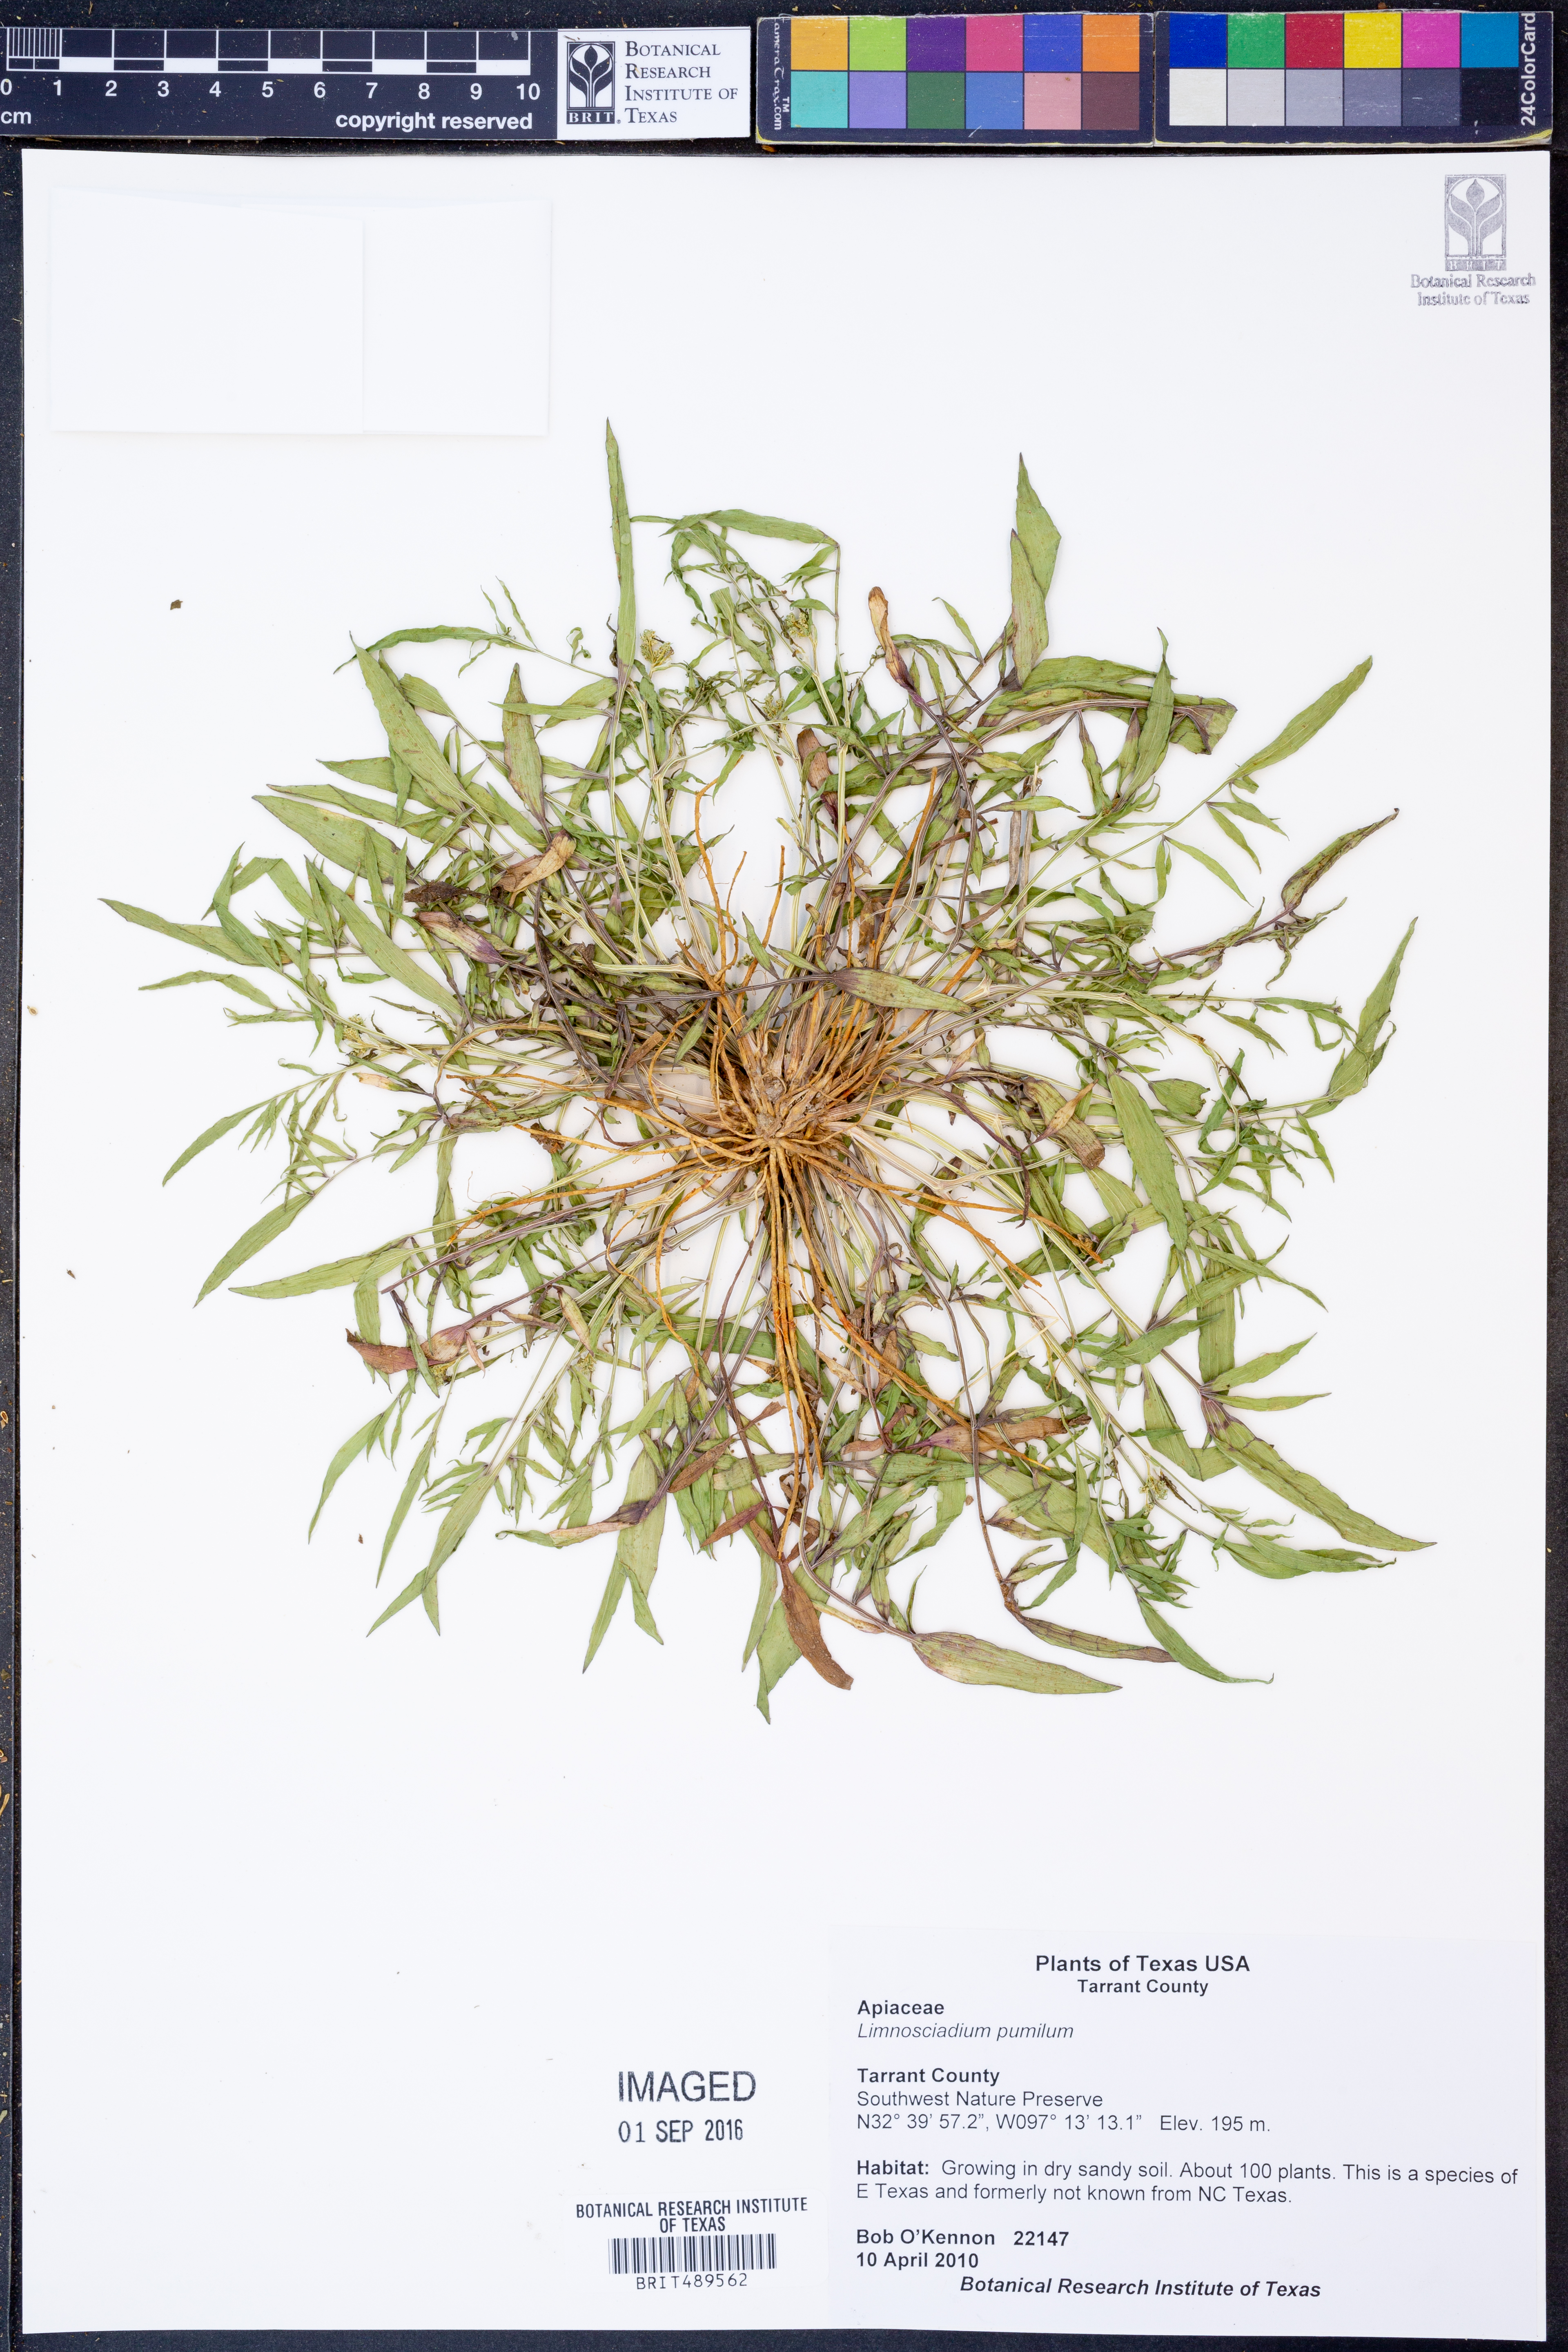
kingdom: Plantae
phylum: Tracheophyta
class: Magnoliopsida
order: Apiales
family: Apiaceae
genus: Limnosciadium
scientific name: Limnosciadium pinnatum
